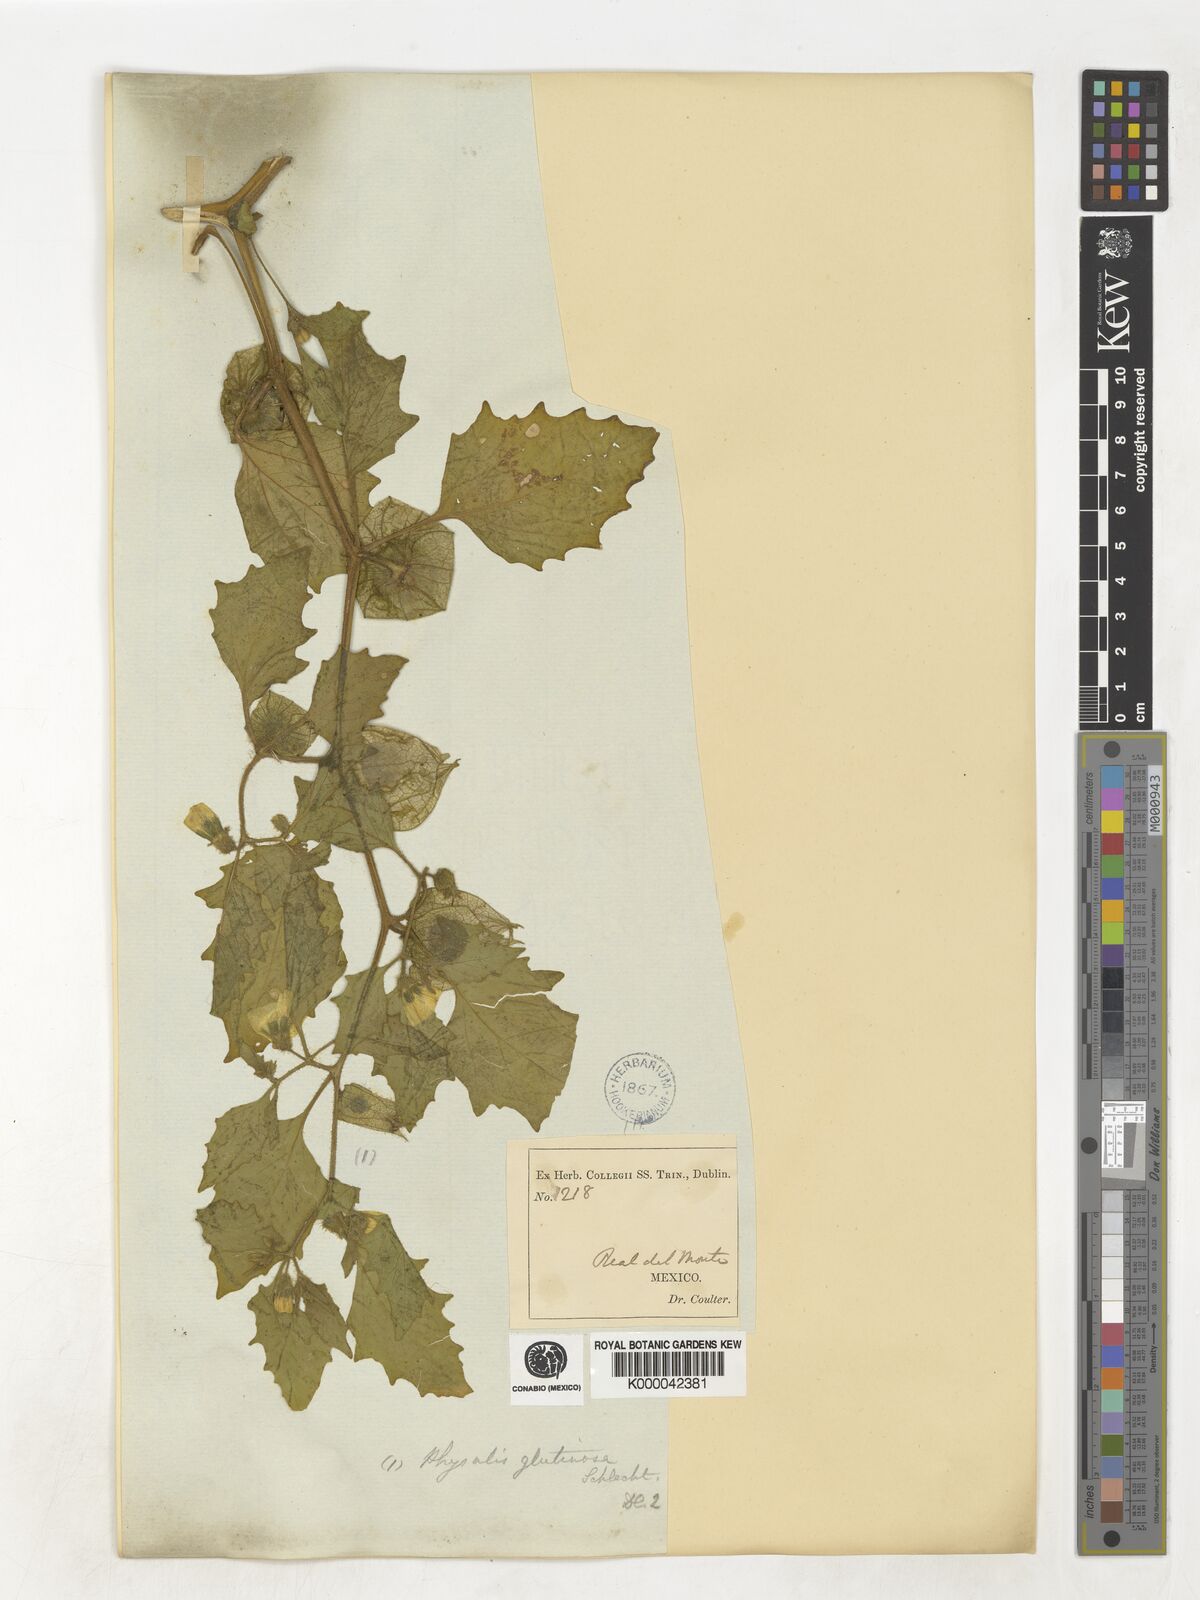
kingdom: Plantae
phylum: Tracheophyta
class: Magnoliopsida
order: Solanales
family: Solanaceae
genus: Physalis
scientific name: Physalis pubescens
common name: Downy ground-cherry
